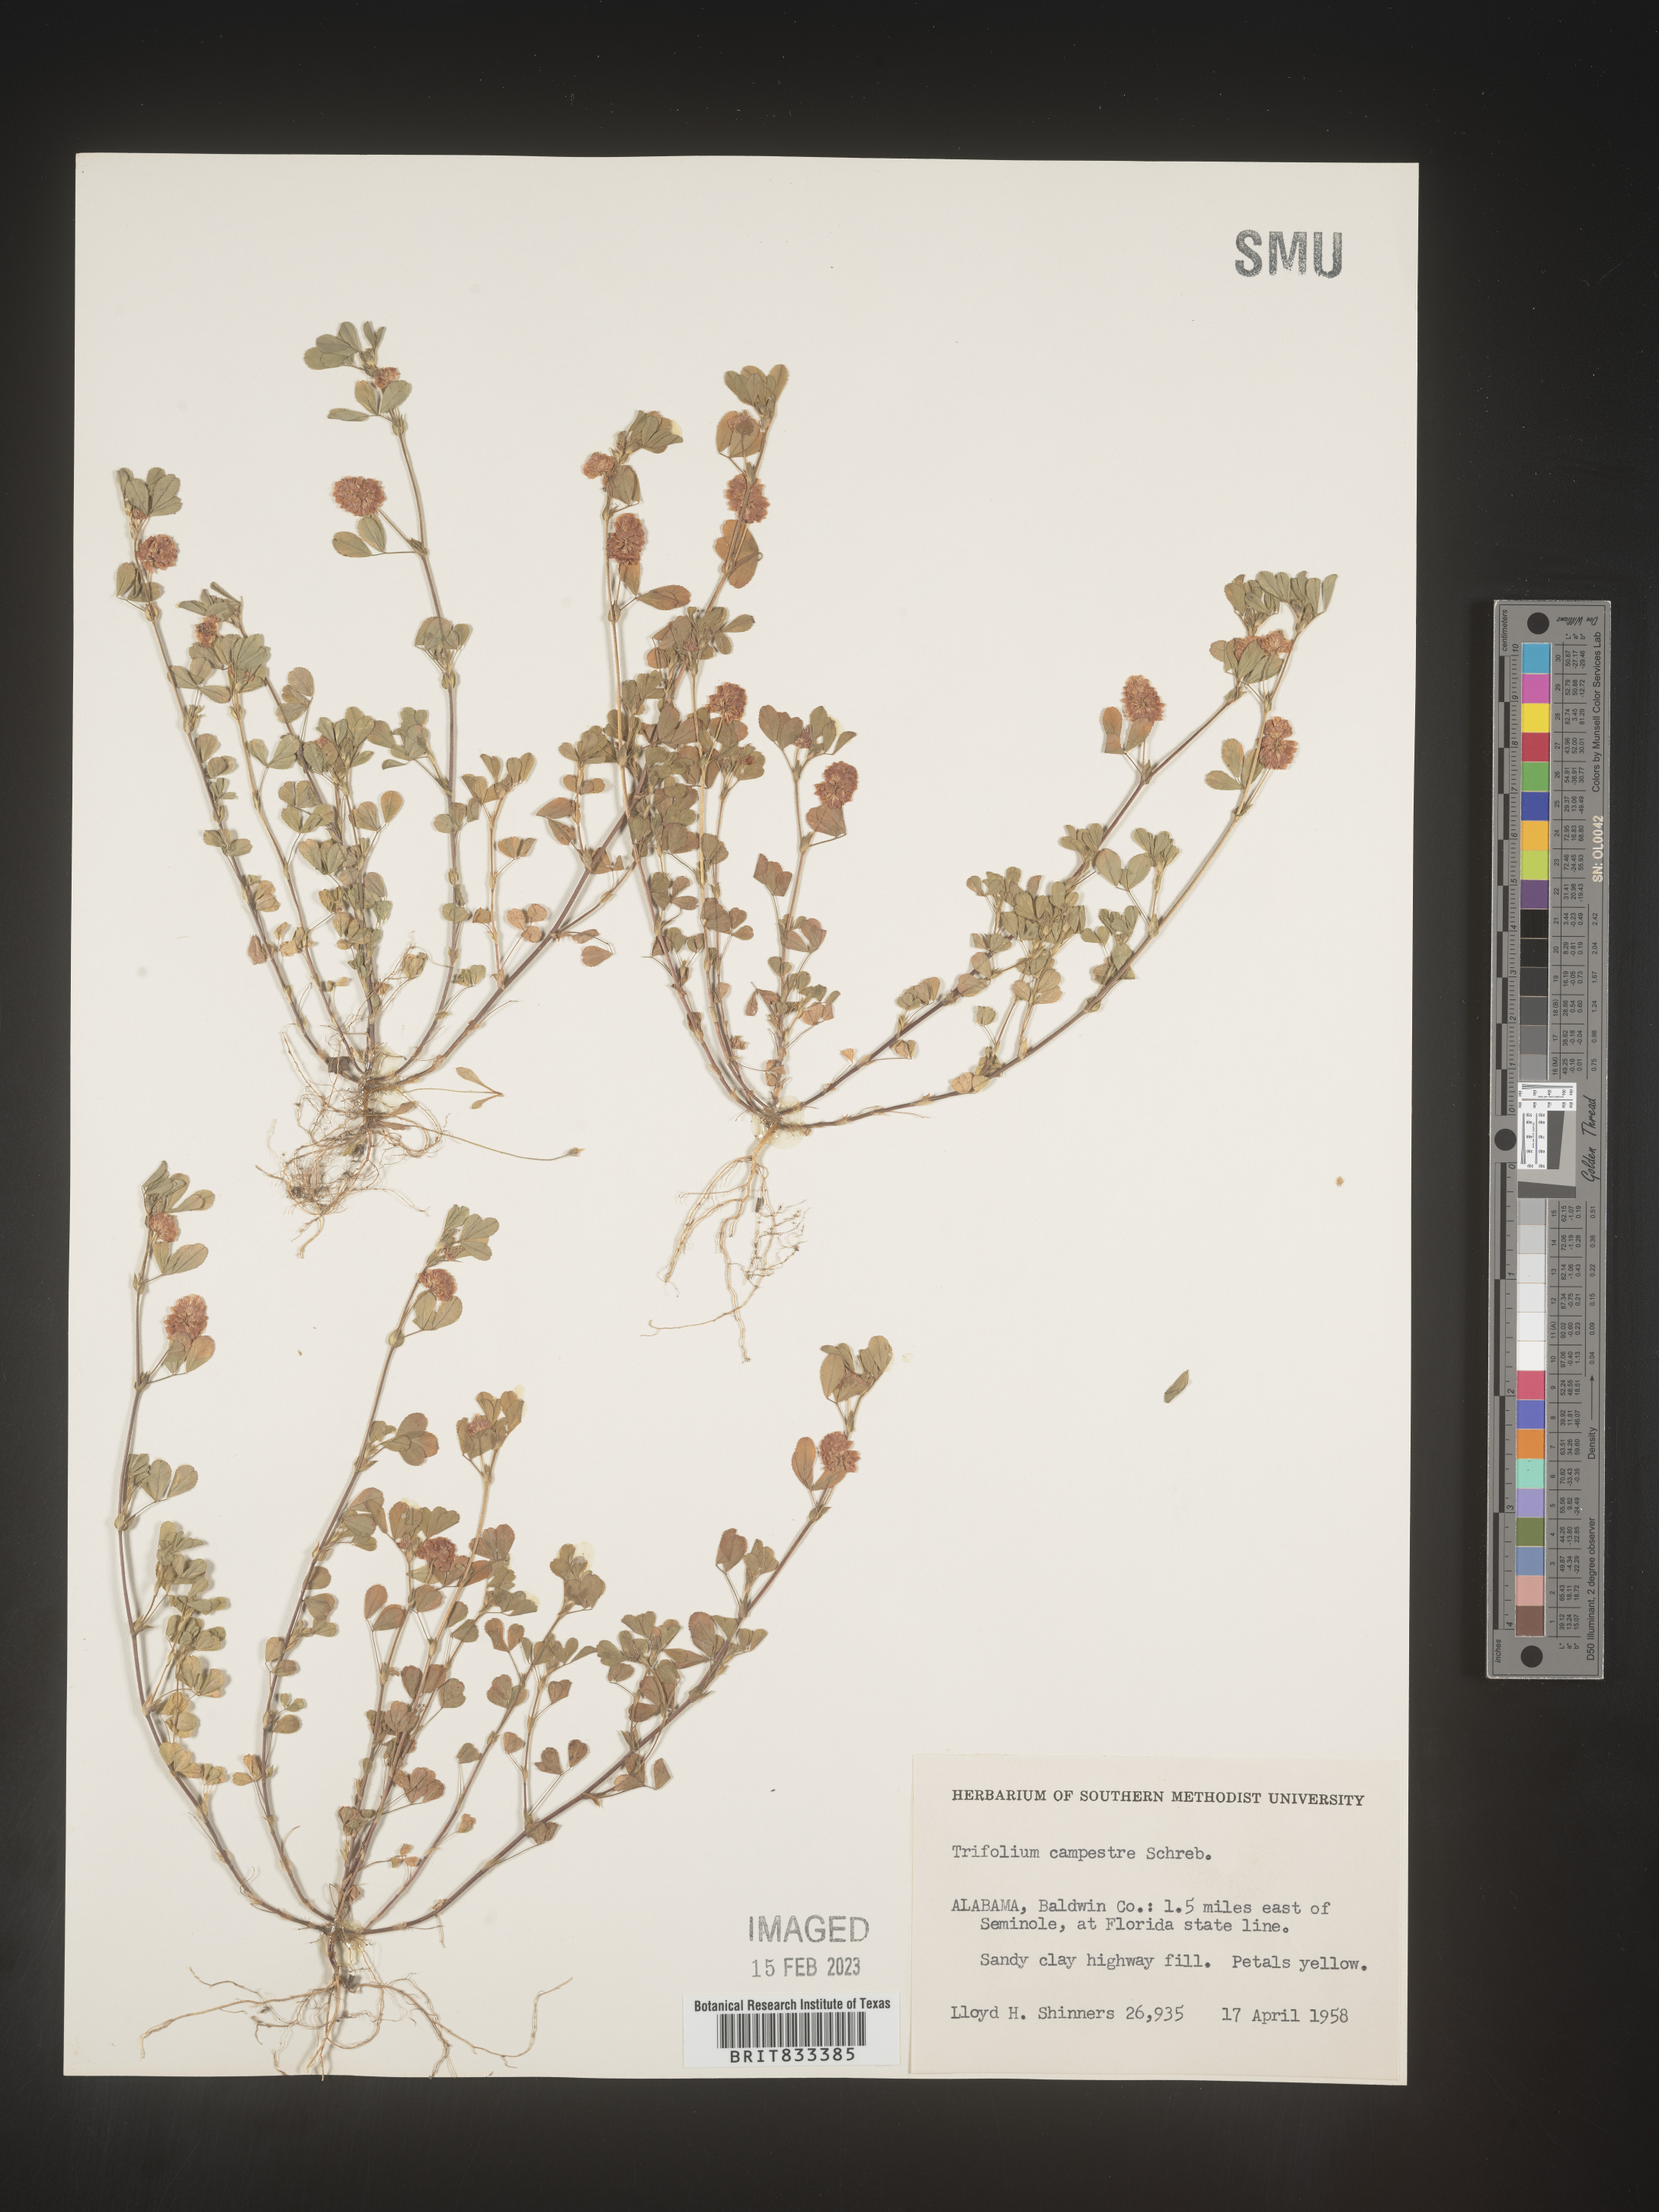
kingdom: Plantae
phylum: Tracheophyta
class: Magnoliopsida
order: Fabales
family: Fabaceae
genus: Trifolium
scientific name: Trifolium campestre
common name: Field clover
